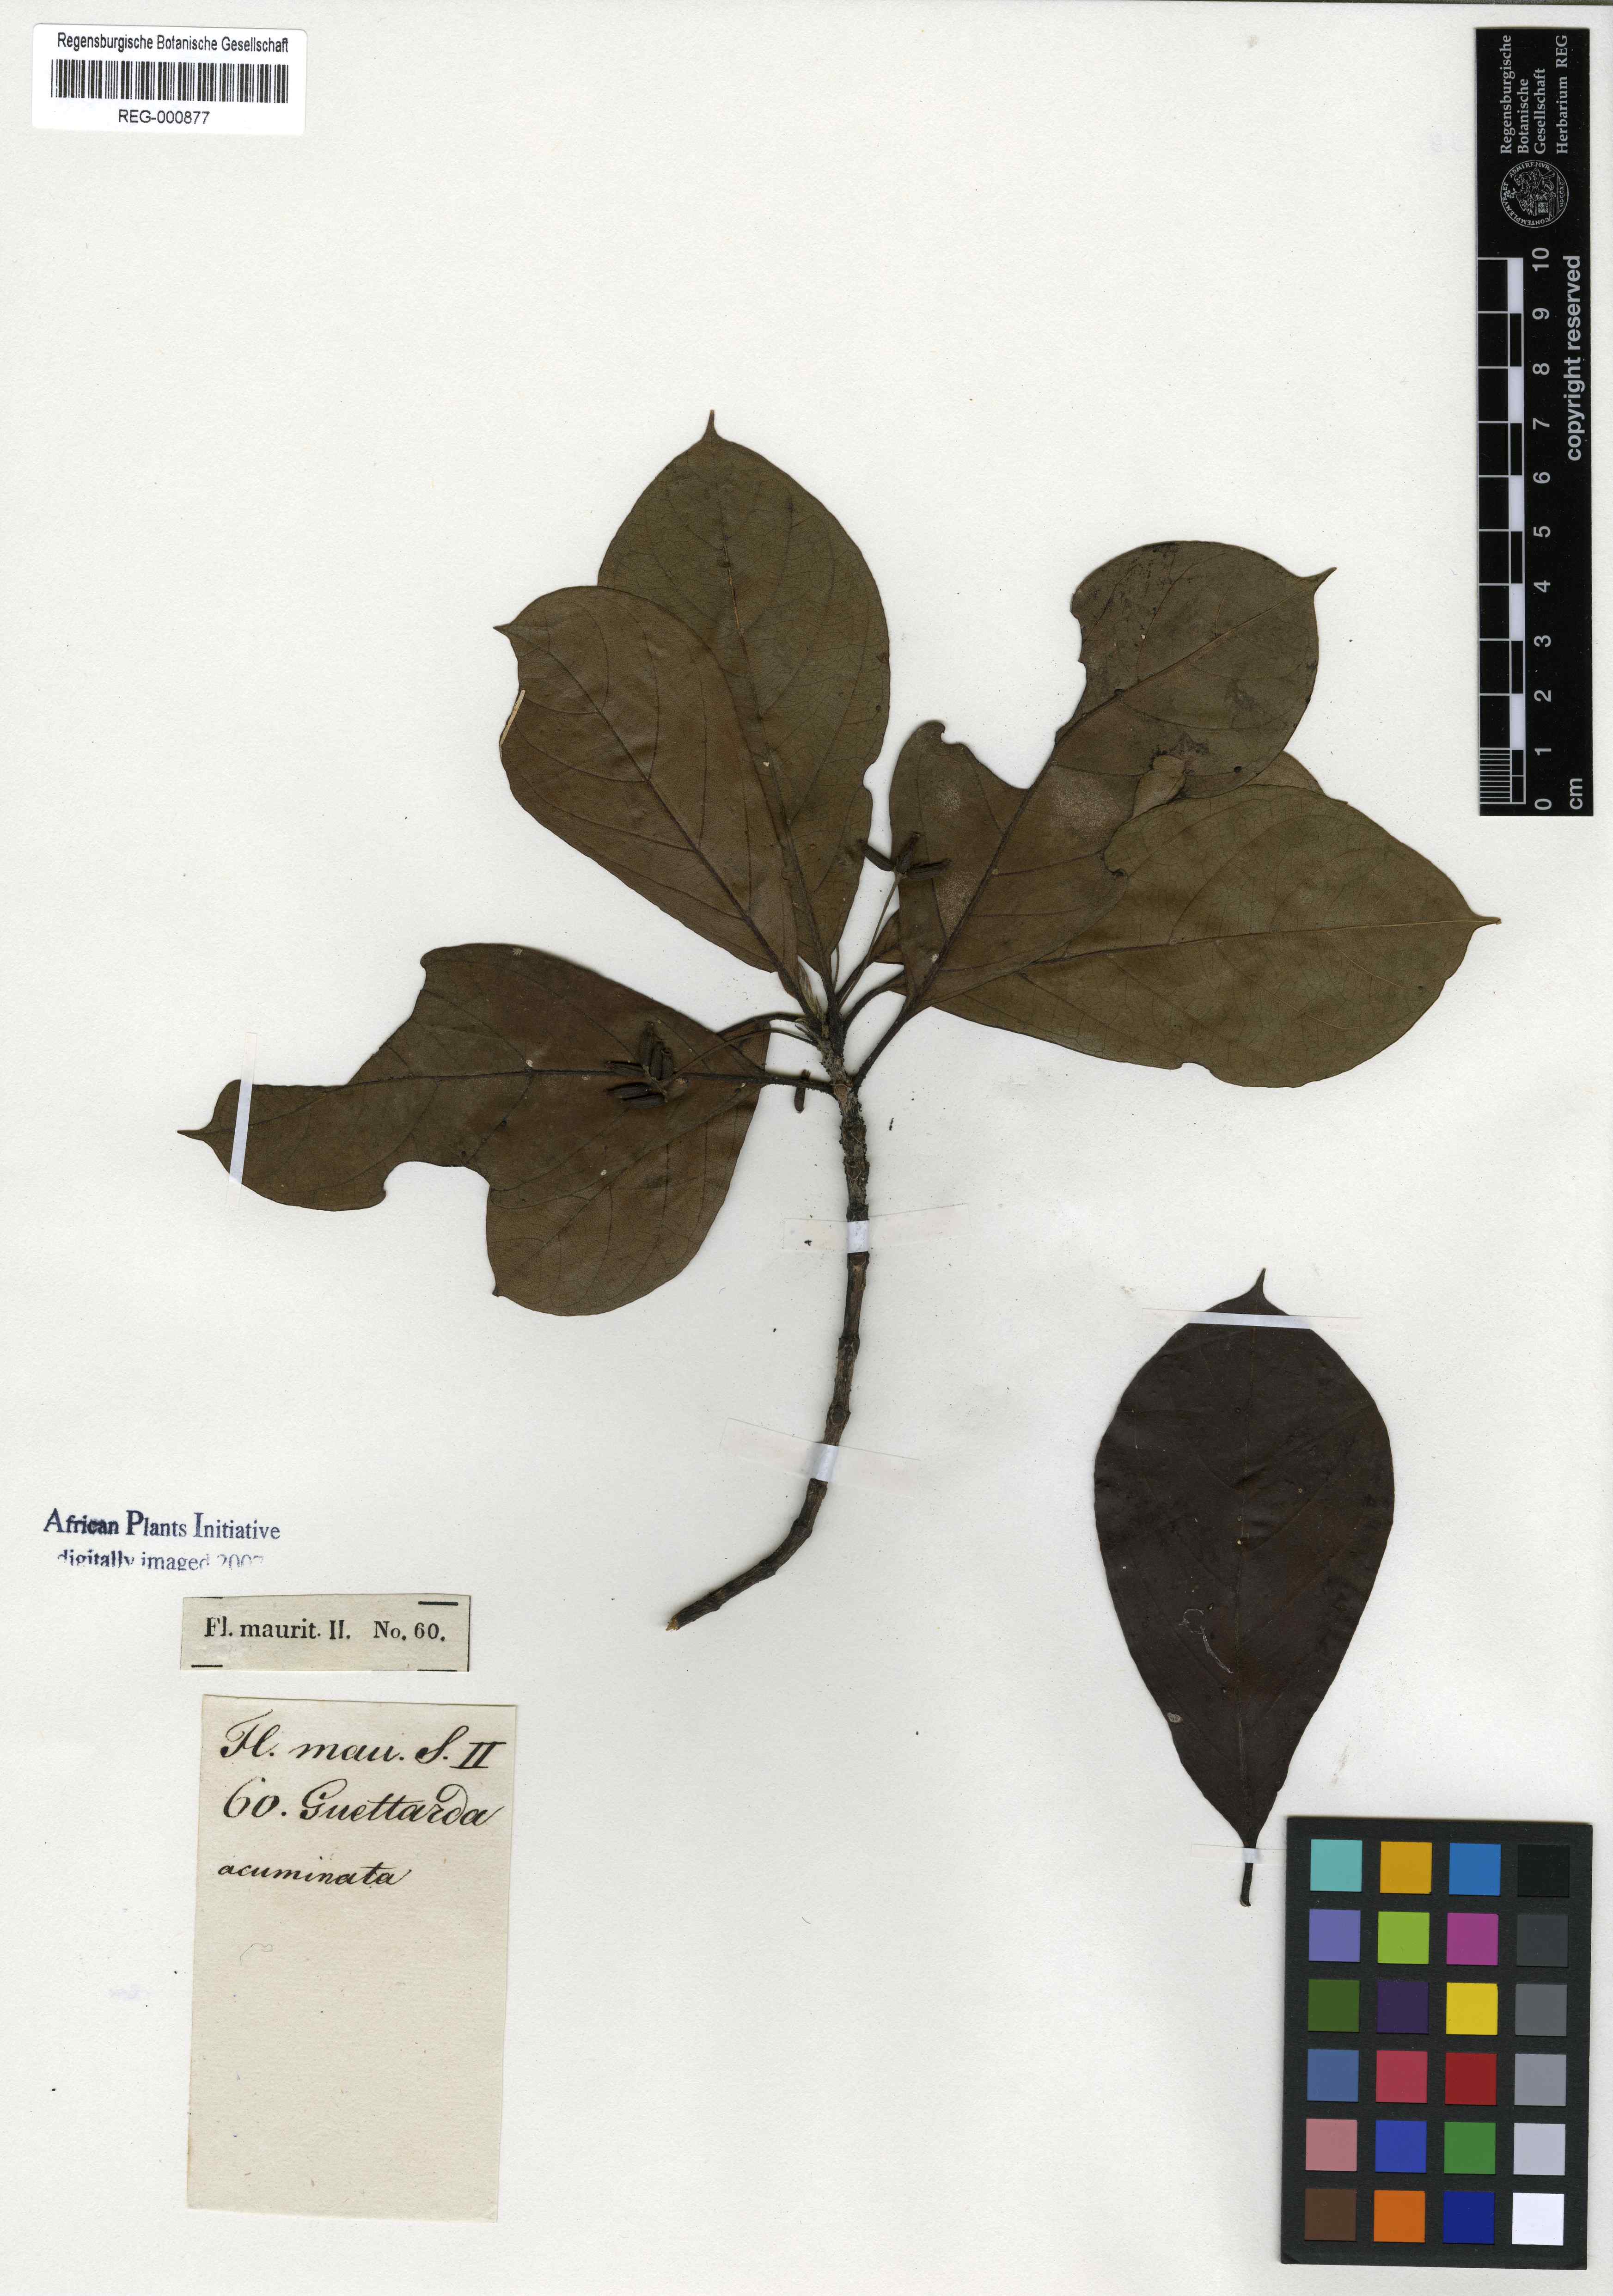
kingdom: Plantae
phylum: Tracheophyta
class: Magnoliopsida
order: Gentianales
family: Rubiaceae
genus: Antirhea
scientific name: Antirhea borbonica
